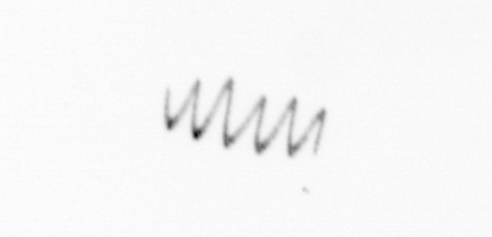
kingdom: Chromista
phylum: Ochrophyta
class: Bacillariophyceae
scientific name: Bacillariophyceae
